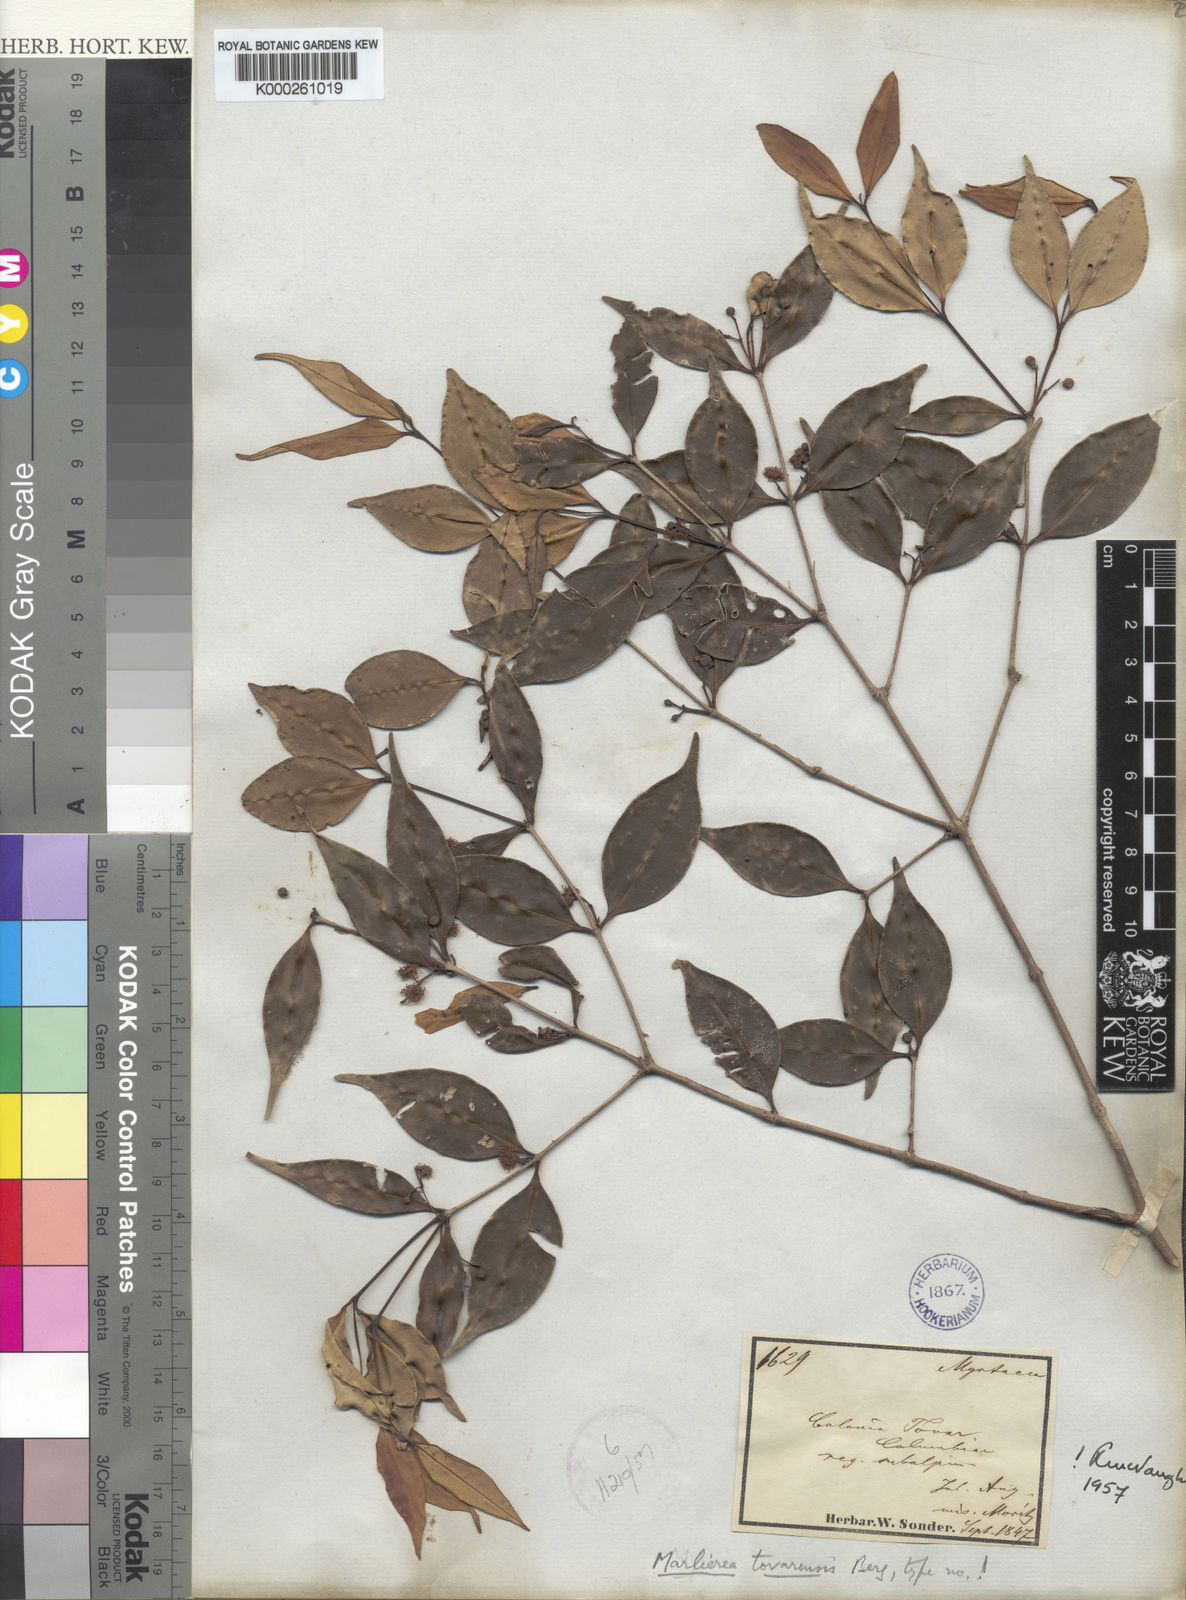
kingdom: Plantae
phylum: Tracheophyta
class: Magnoliopsida
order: Myrtales
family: Myrtaceae
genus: Myrcia
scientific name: Myrcia neotovarensis
